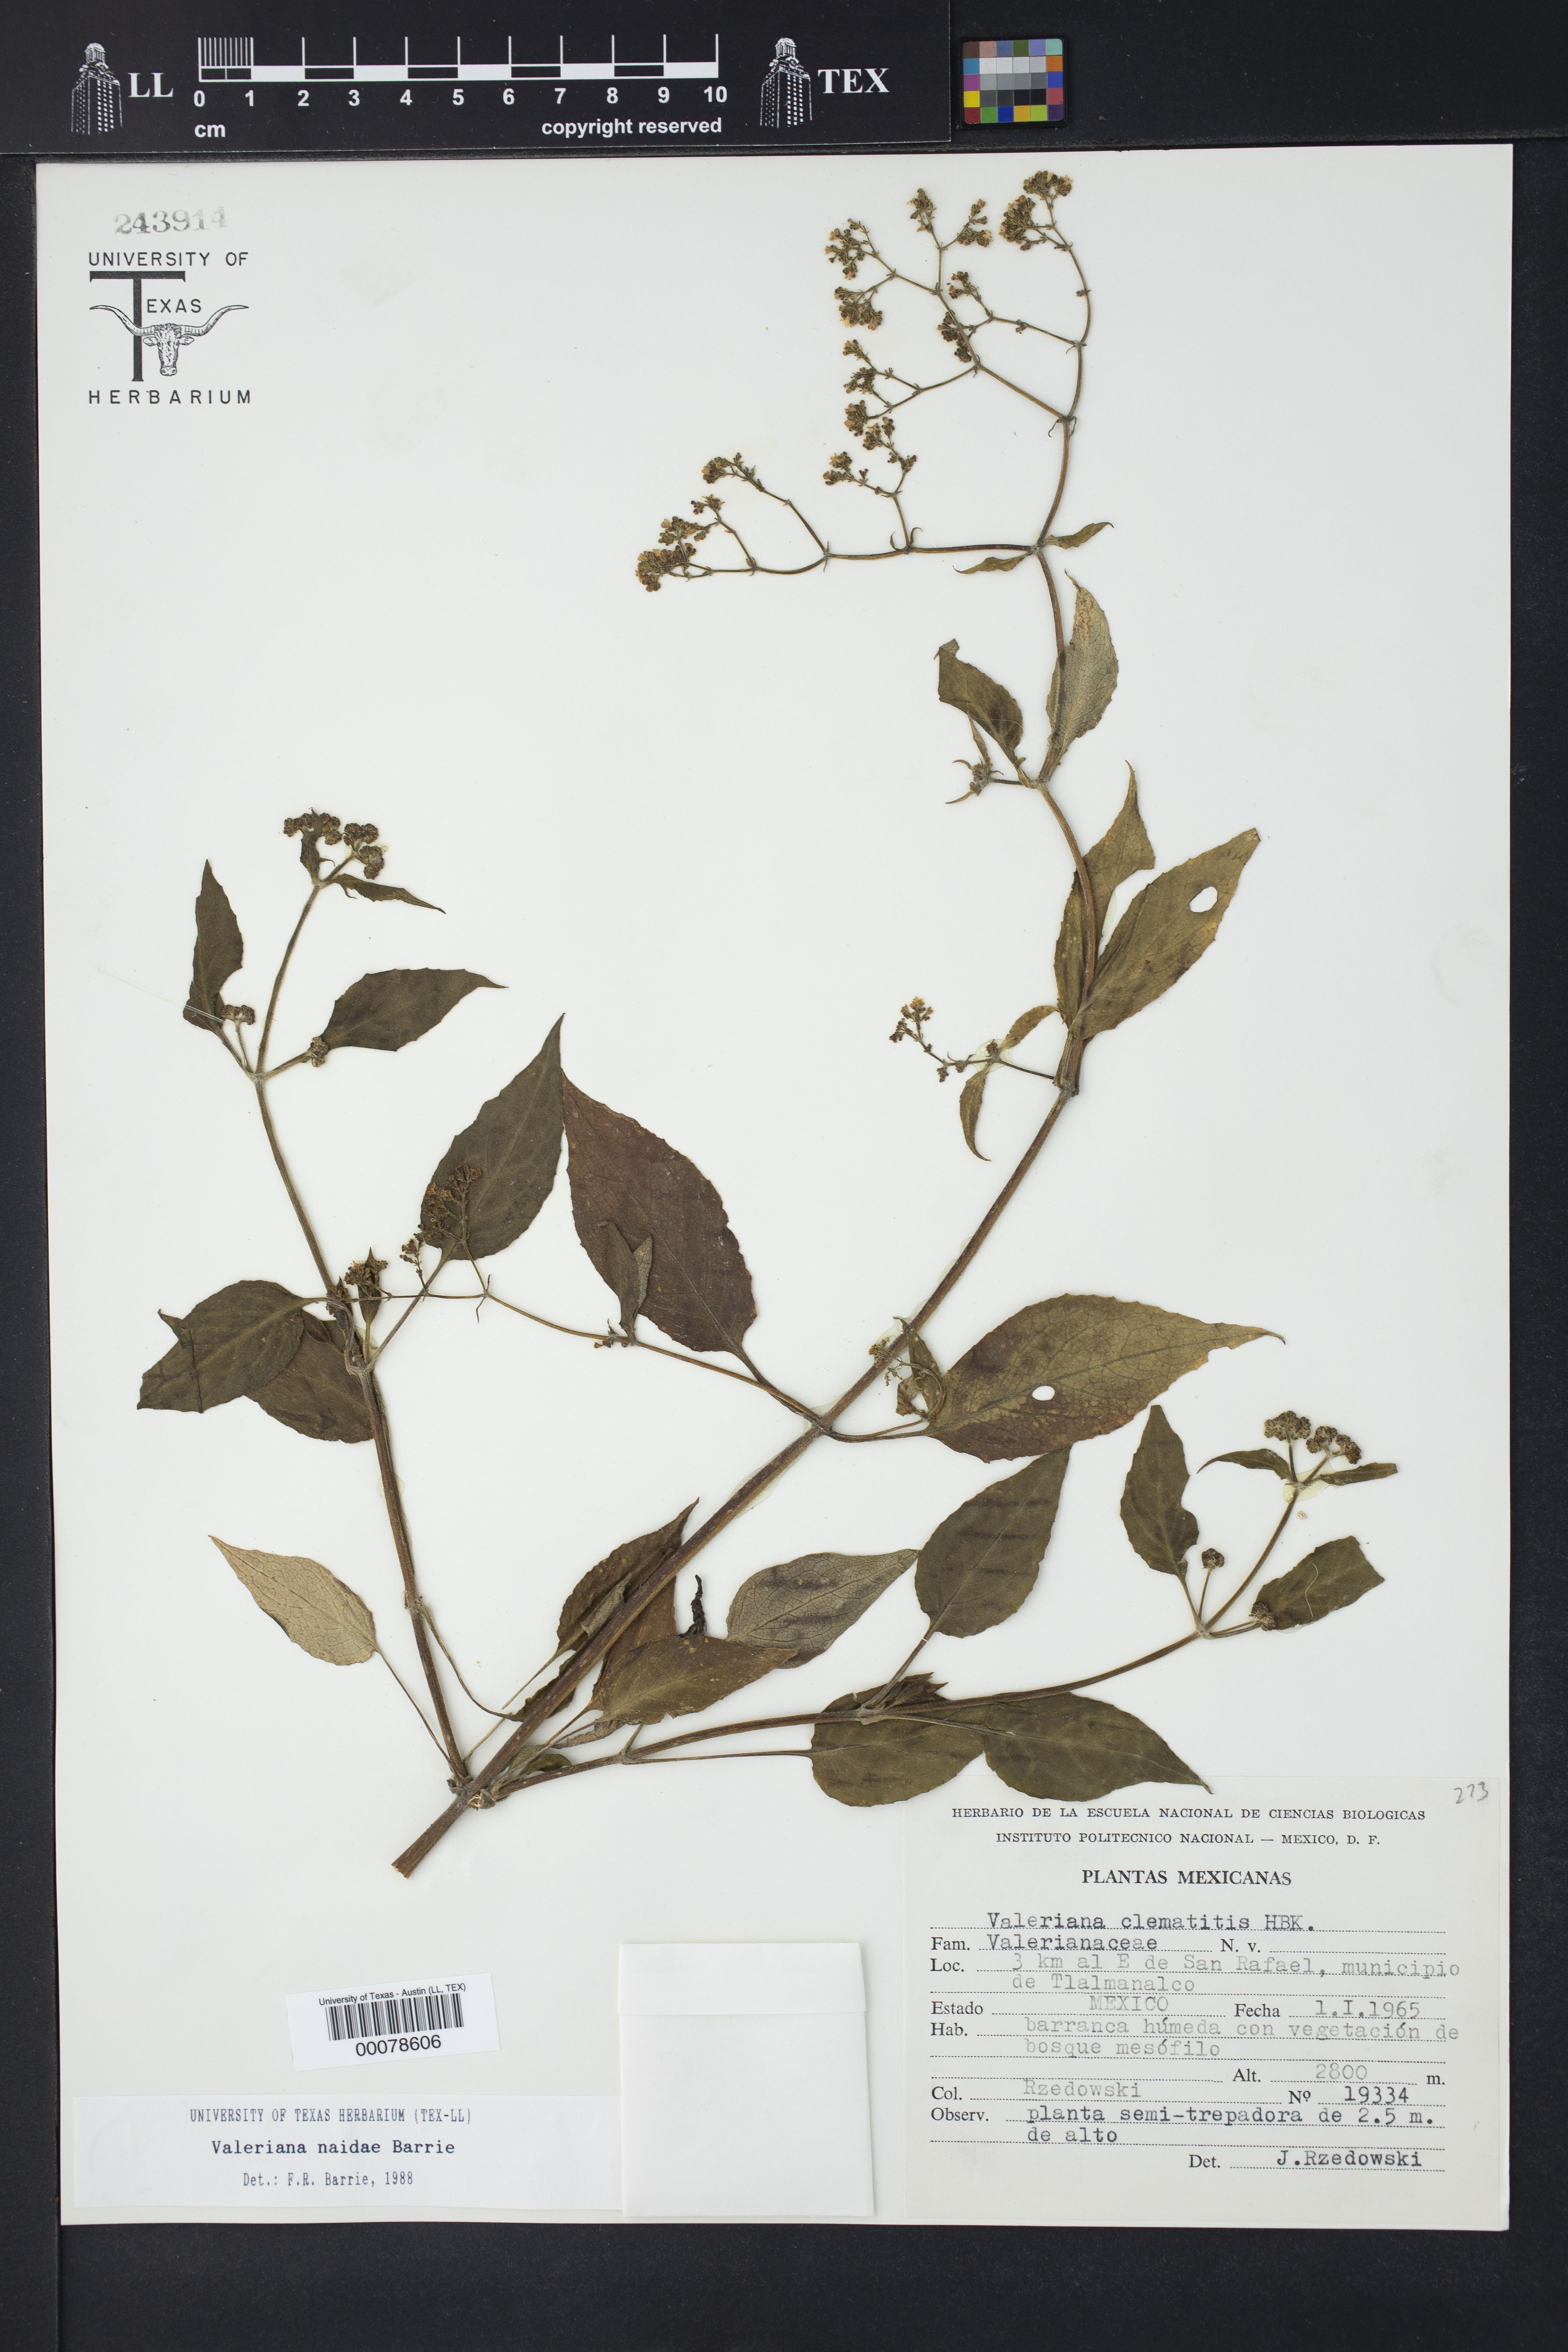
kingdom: Plantae
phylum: Tracheophyta
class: Magnoliopsida
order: Dipsacales
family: Caprifoliaceae
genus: Valeriana
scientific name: Valeriana naidae
